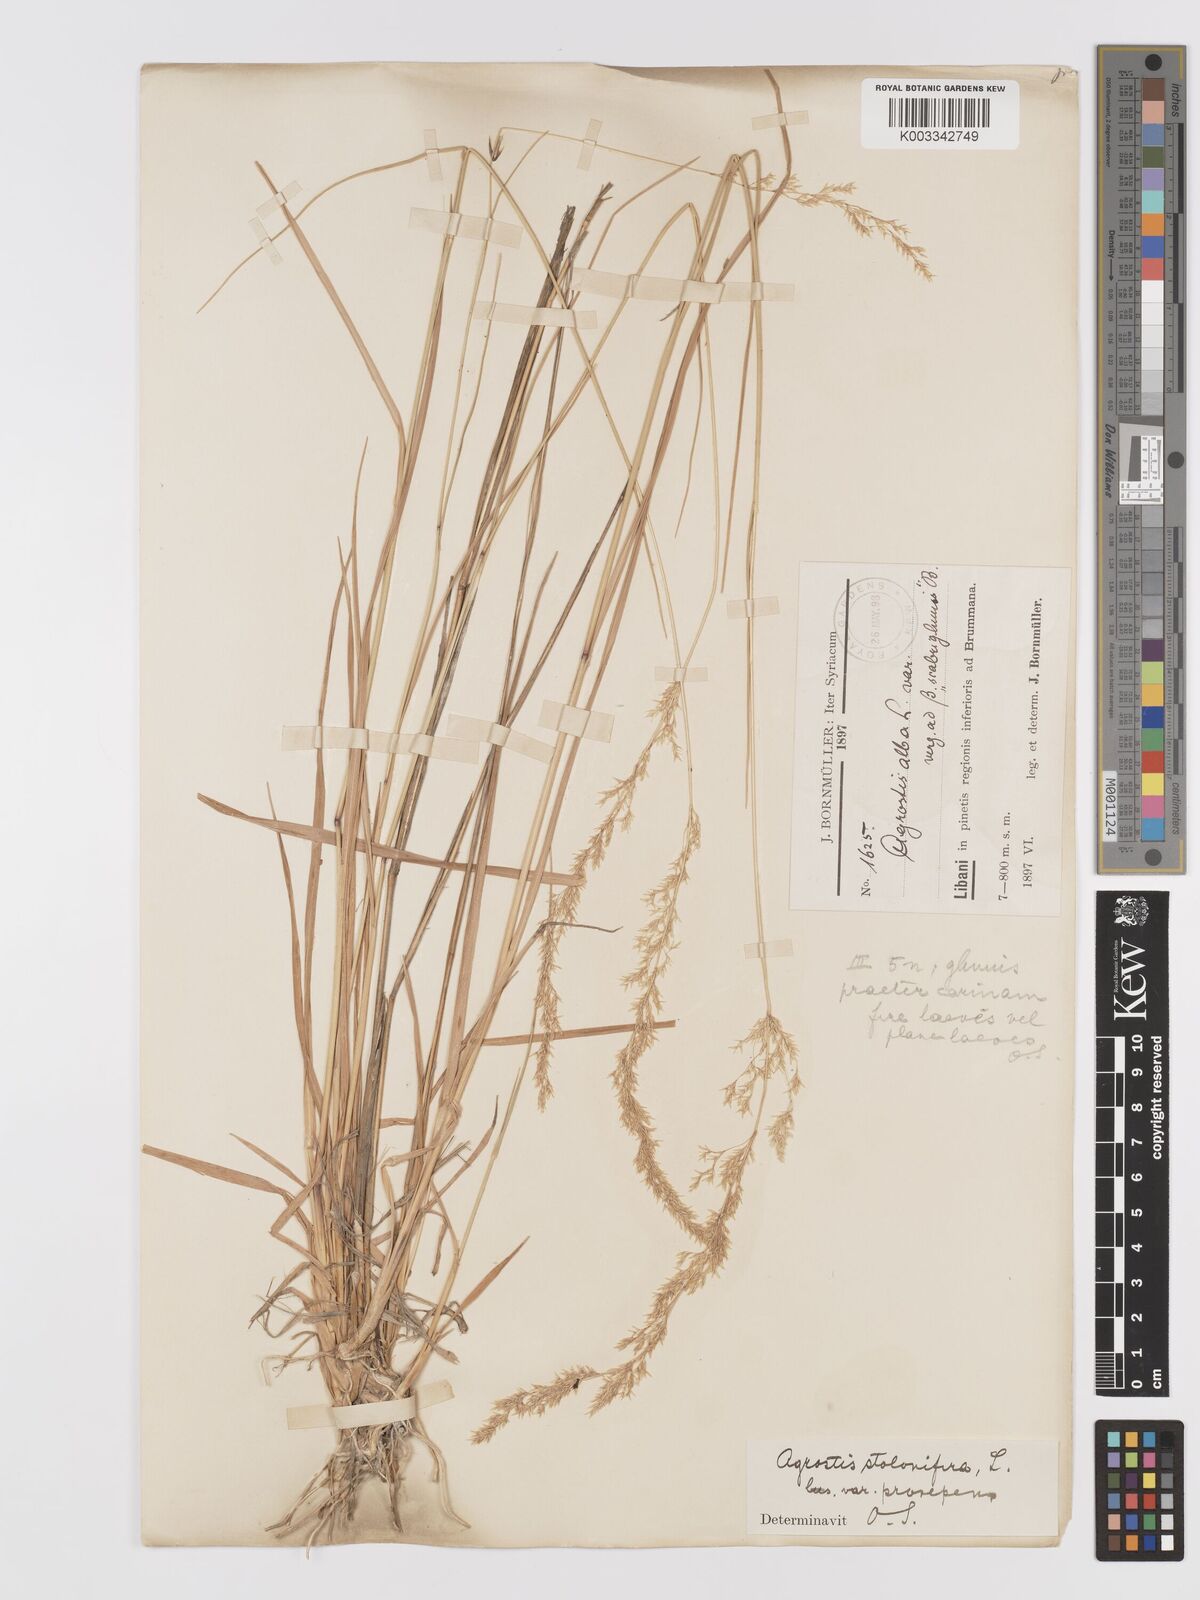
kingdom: Plantae
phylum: Tracheophyta
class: Liliopsida
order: Poales
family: Poaceae
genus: Agrostis
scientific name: Agrostis stolonifera
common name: Creeping bentgrass
